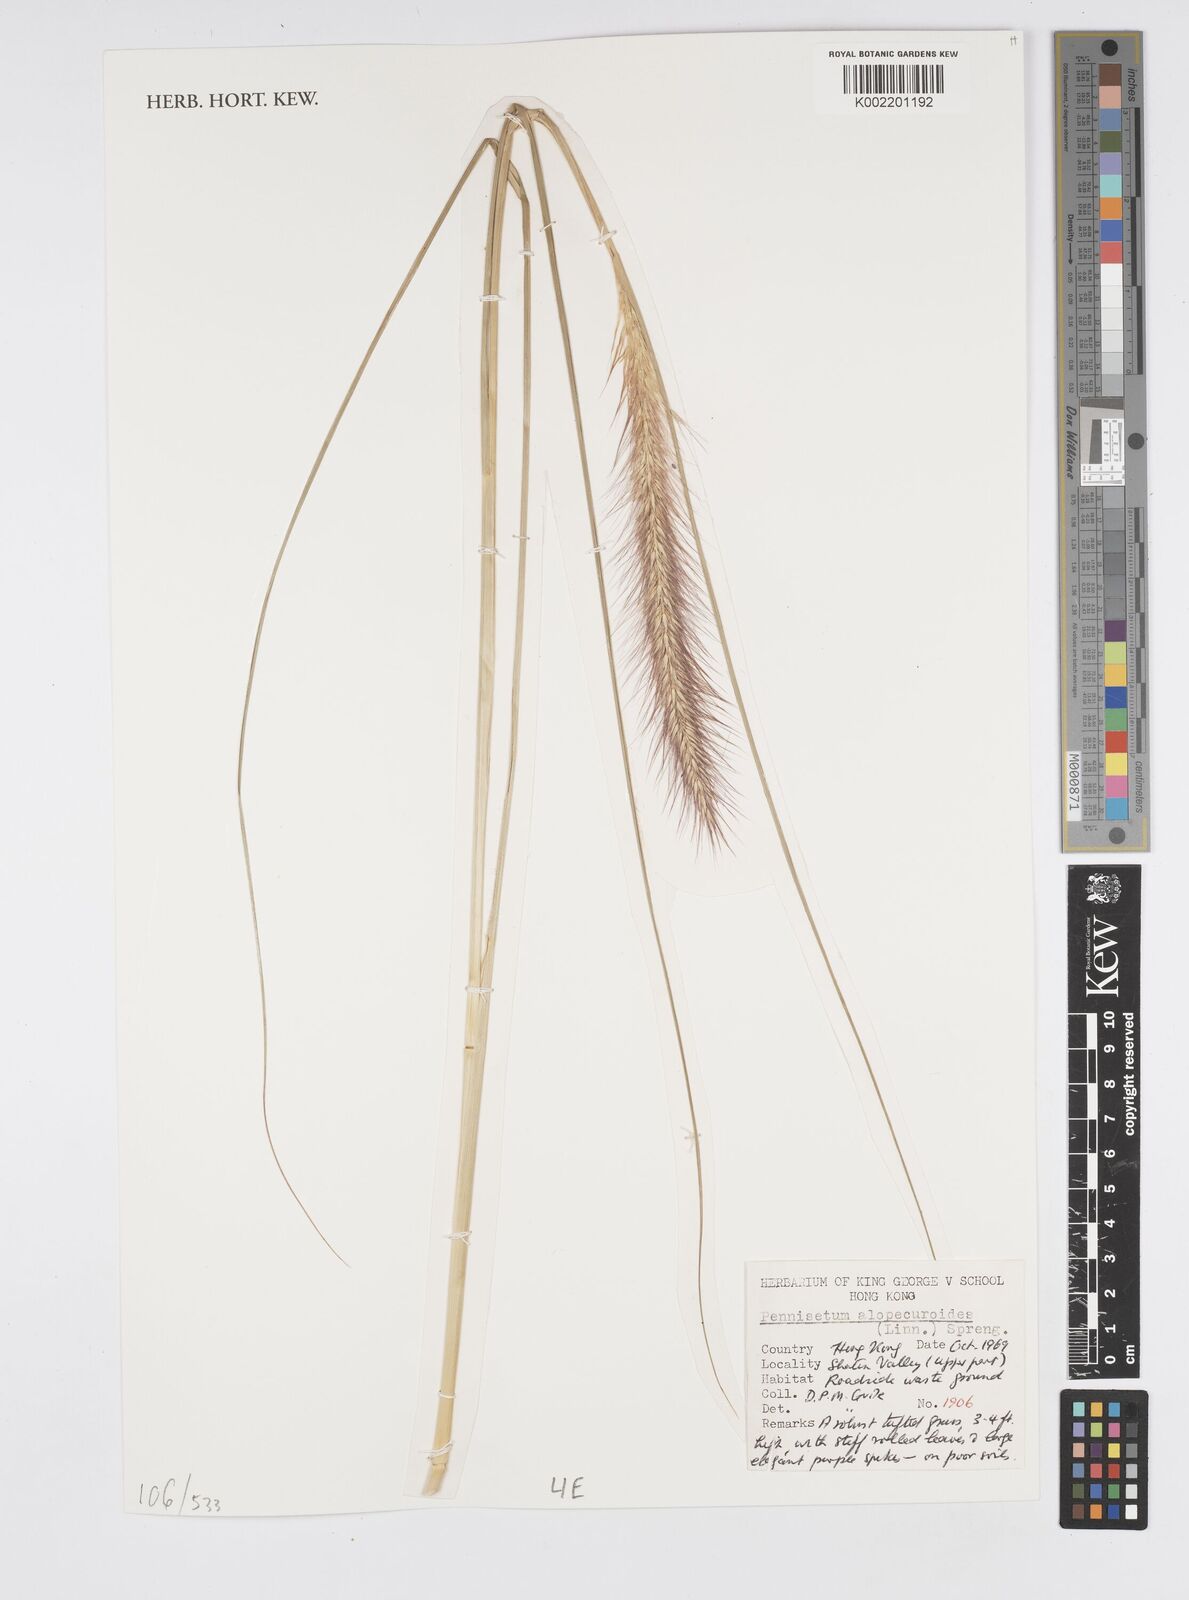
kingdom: Plantae
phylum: Tracheophyta
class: Liliopsida
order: Poales
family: Poaceae
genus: Cenchrus
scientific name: Cenchrus alopecuroides
